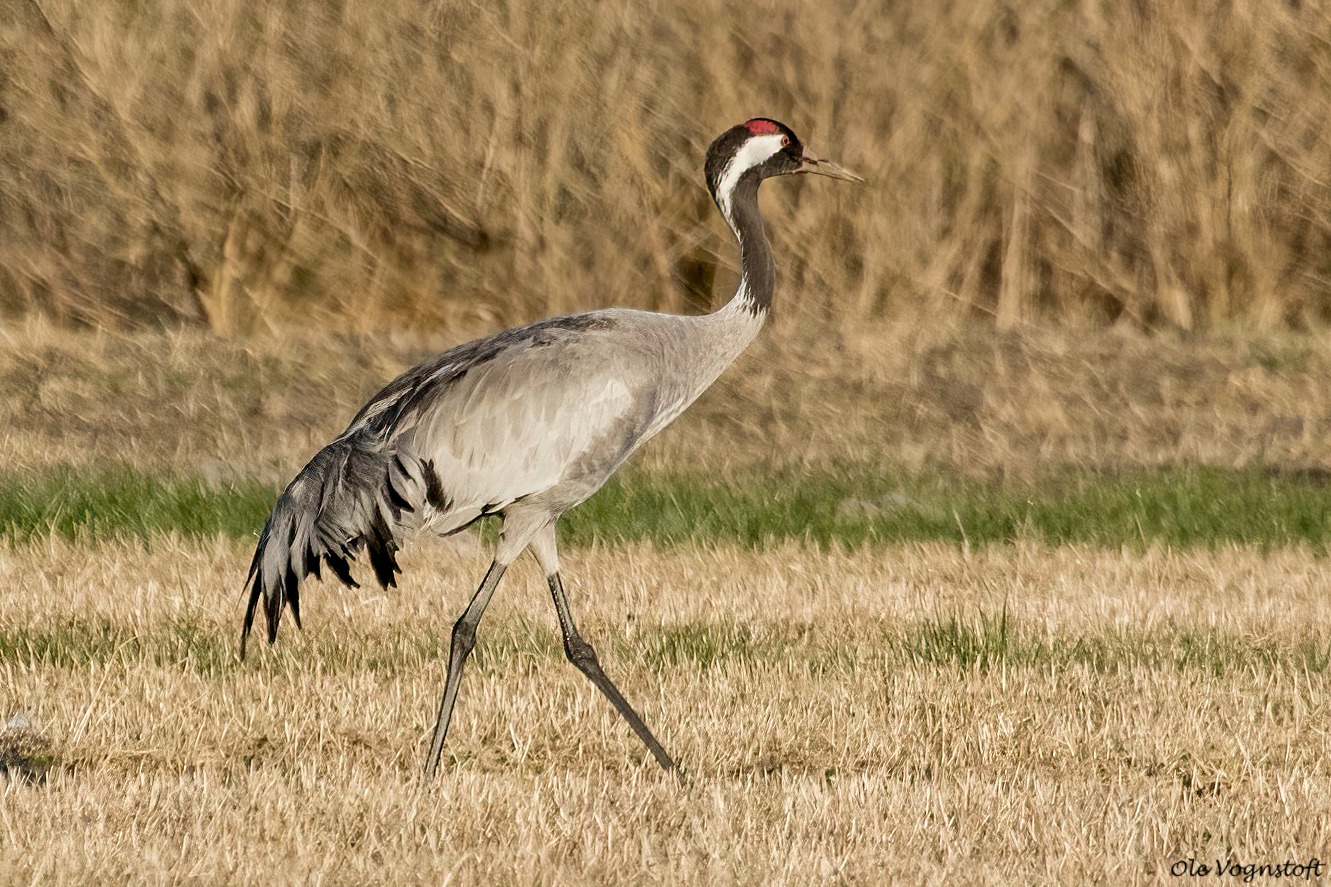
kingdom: Animalia
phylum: Chordata
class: Aves
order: Gruiformes
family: Gruidae
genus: Grus
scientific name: Grus grus
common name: Trane
